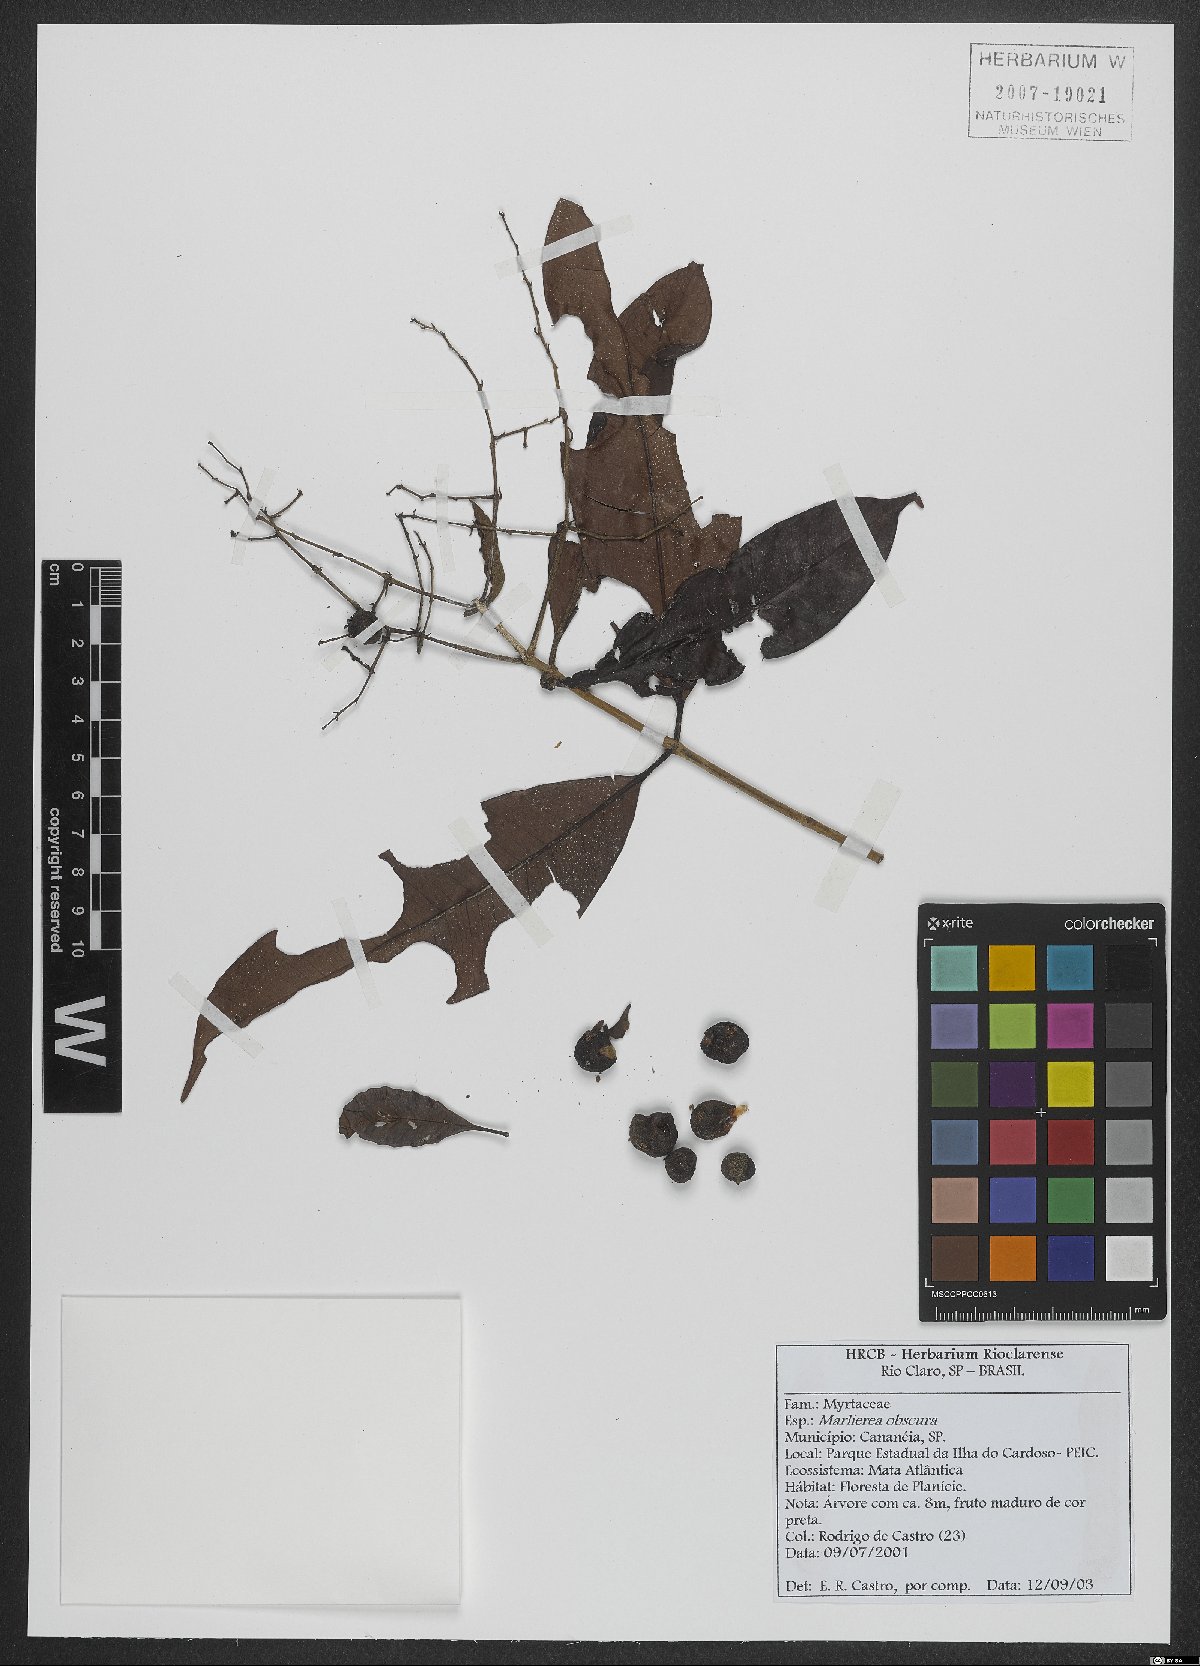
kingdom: Plantae
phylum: Tracheophyta
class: Magnoliopsida
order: Myrtales
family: Myrtaceae
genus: Myrcia
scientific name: Myrcia neoobscura
